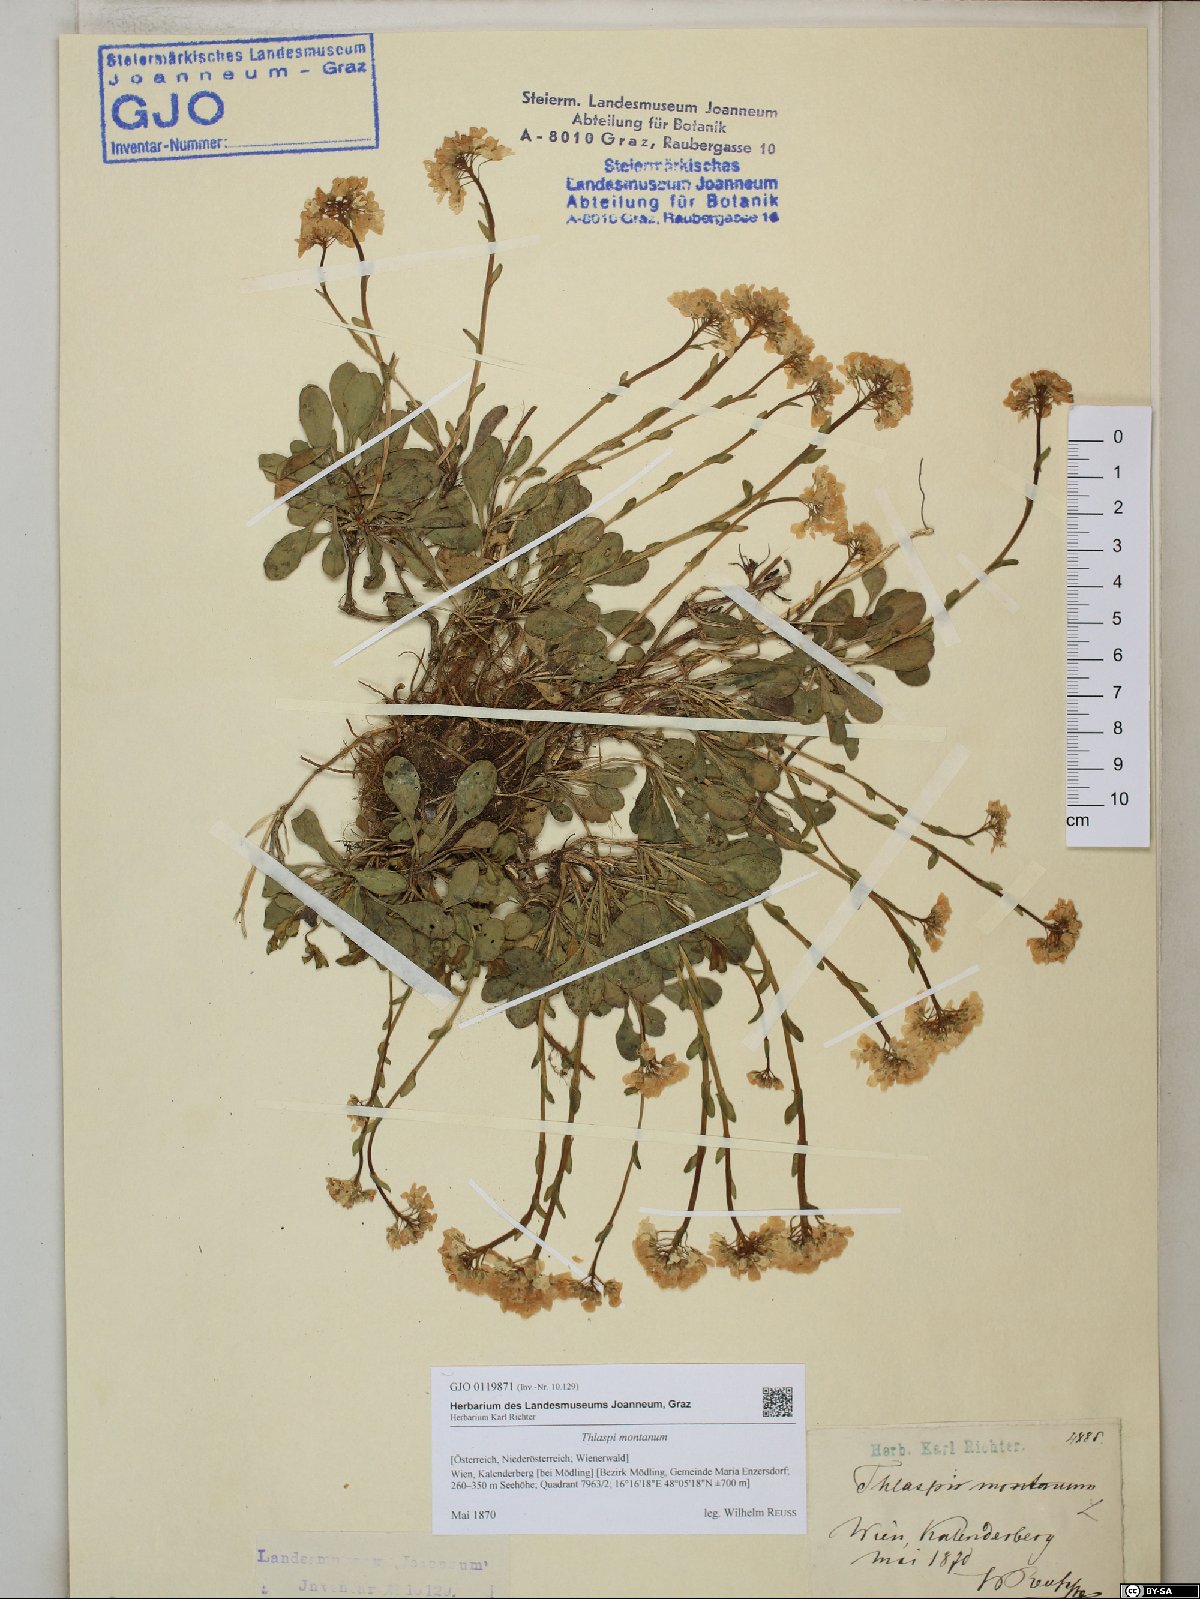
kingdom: Plantae
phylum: Tracheophyta
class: Magnoliopsida
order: Brassicales
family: Brassicaceae
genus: Noccaea
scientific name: Noccaea montana
